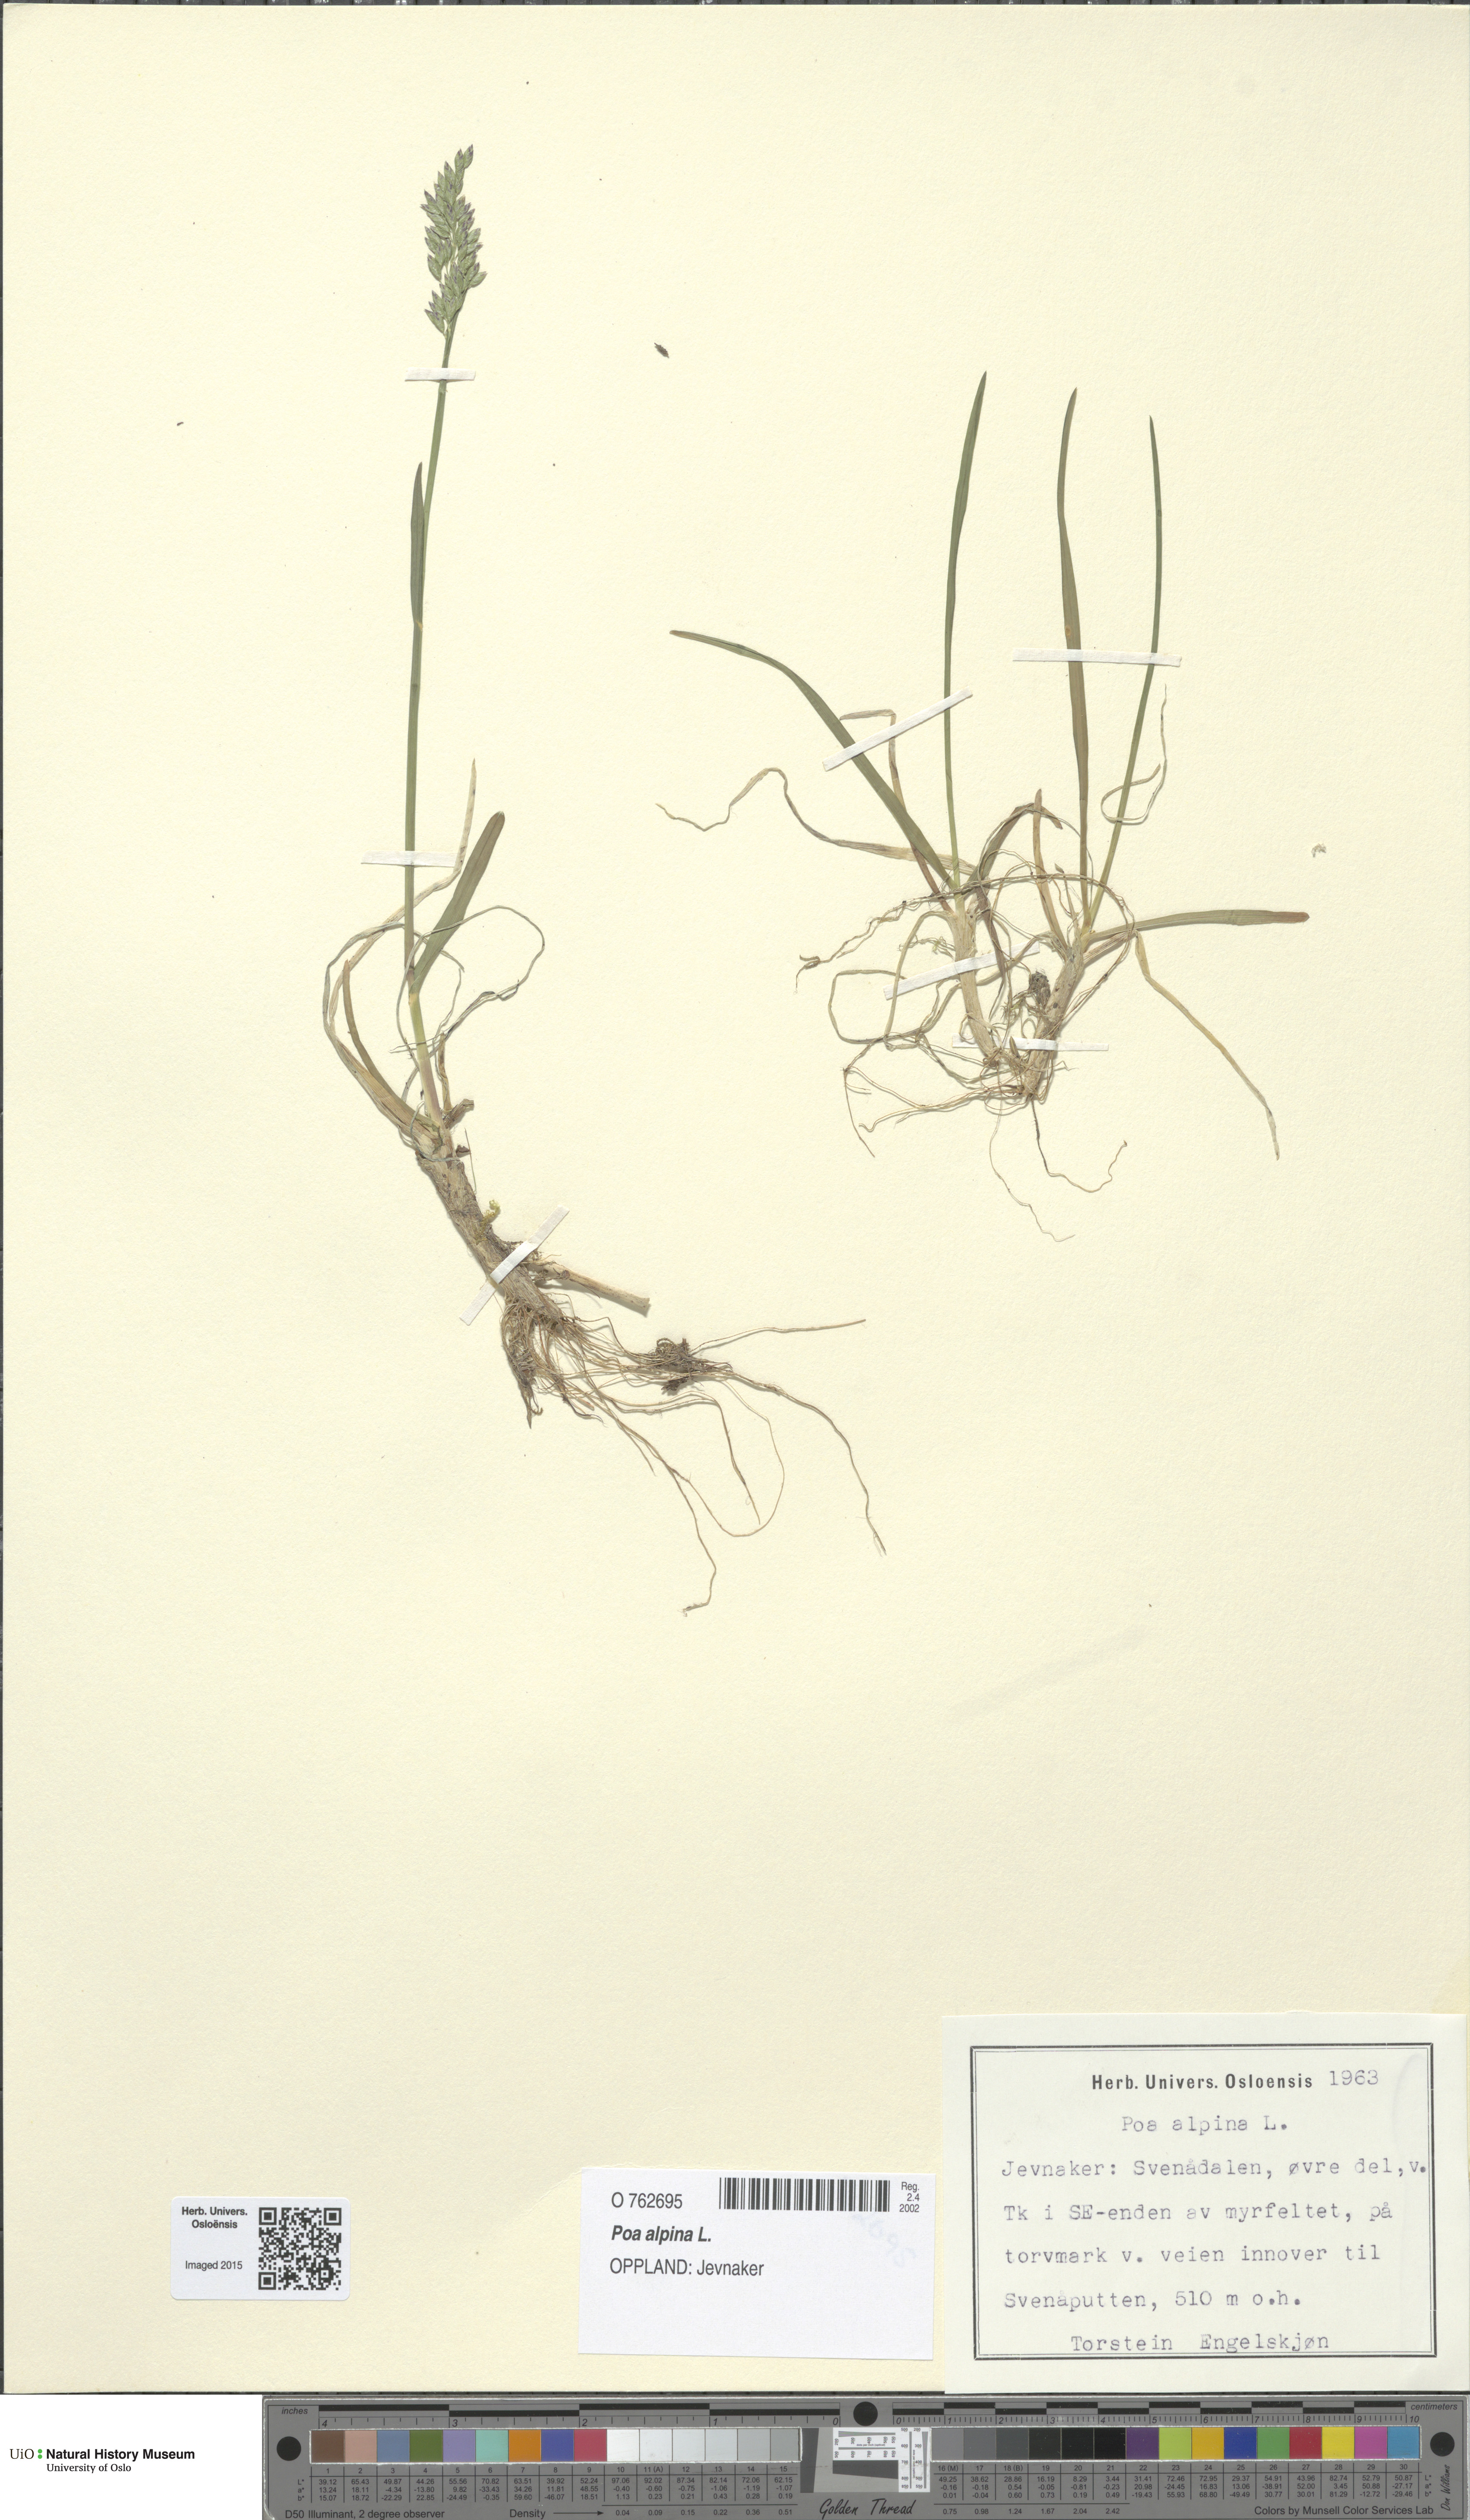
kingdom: Plantae
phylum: Tracheophyta
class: Liliopsida
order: Poales
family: Poaceae
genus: Poa
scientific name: Poa alpina
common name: Alpine bluegrass
